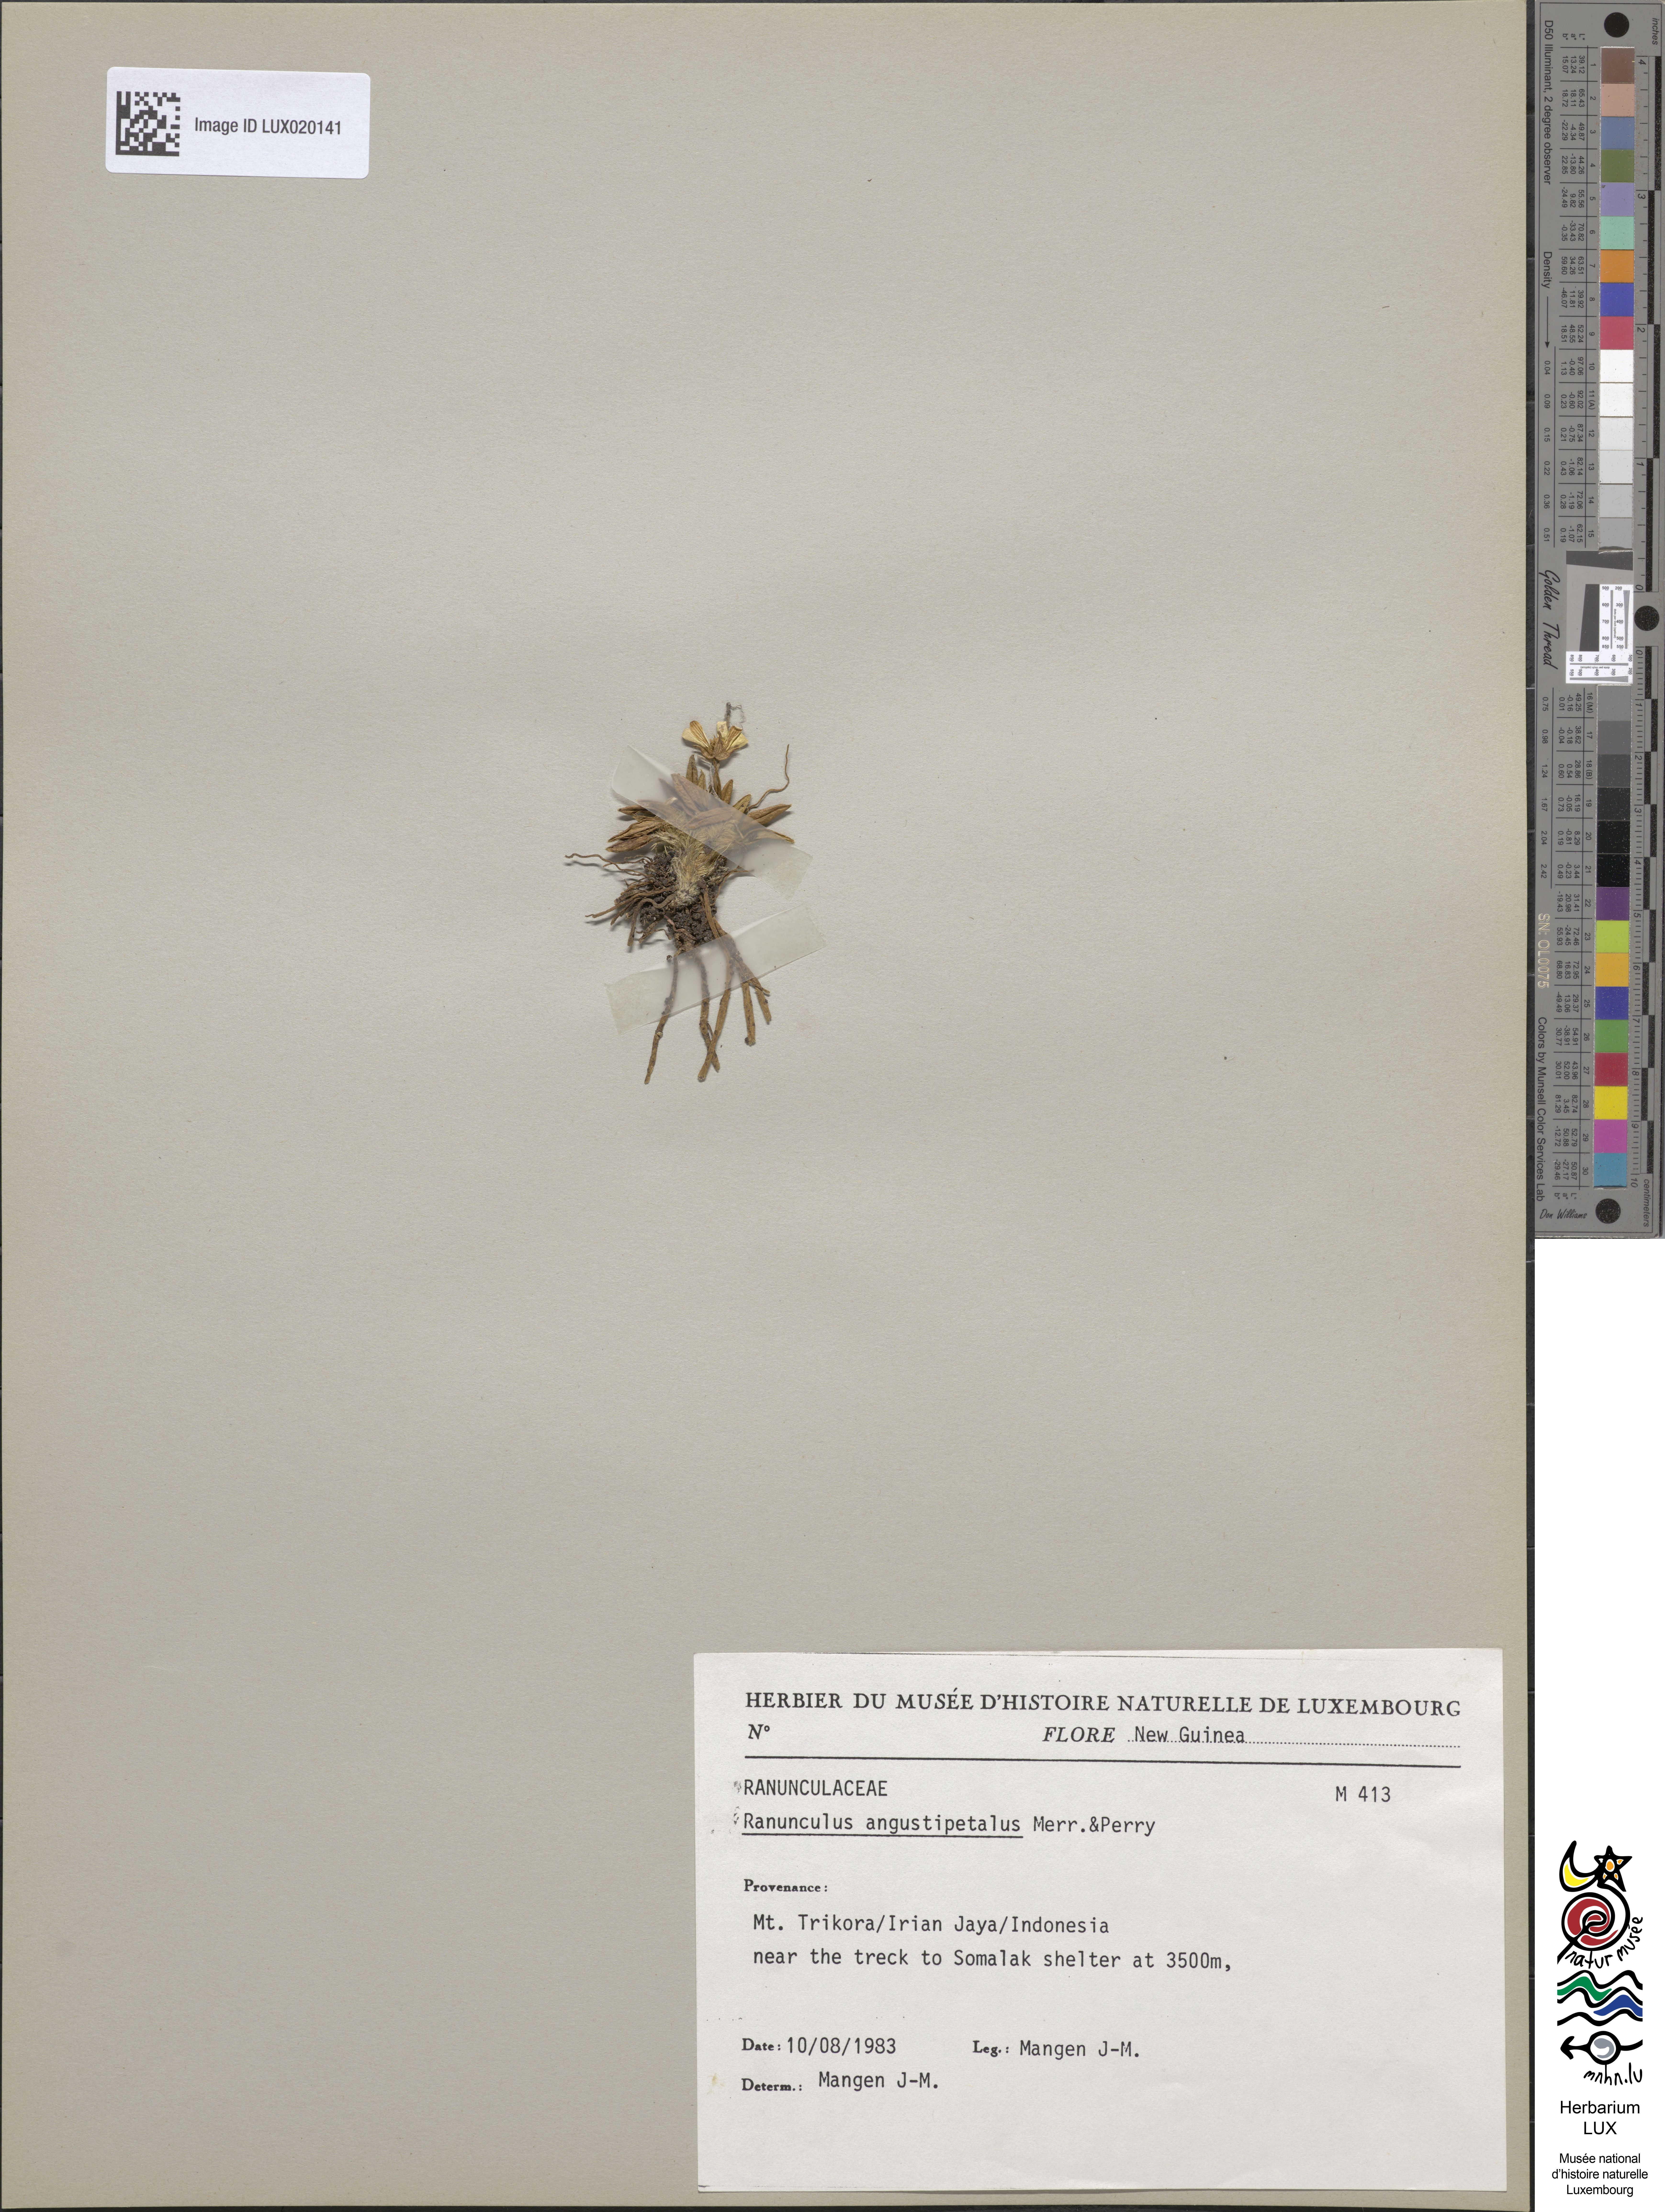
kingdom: Plantae
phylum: Tracheophyta
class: Magnoliopsida
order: Ranunculales
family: Ranunculaceae
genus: Ranunculus
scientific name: Ranunculus angustipetalus
